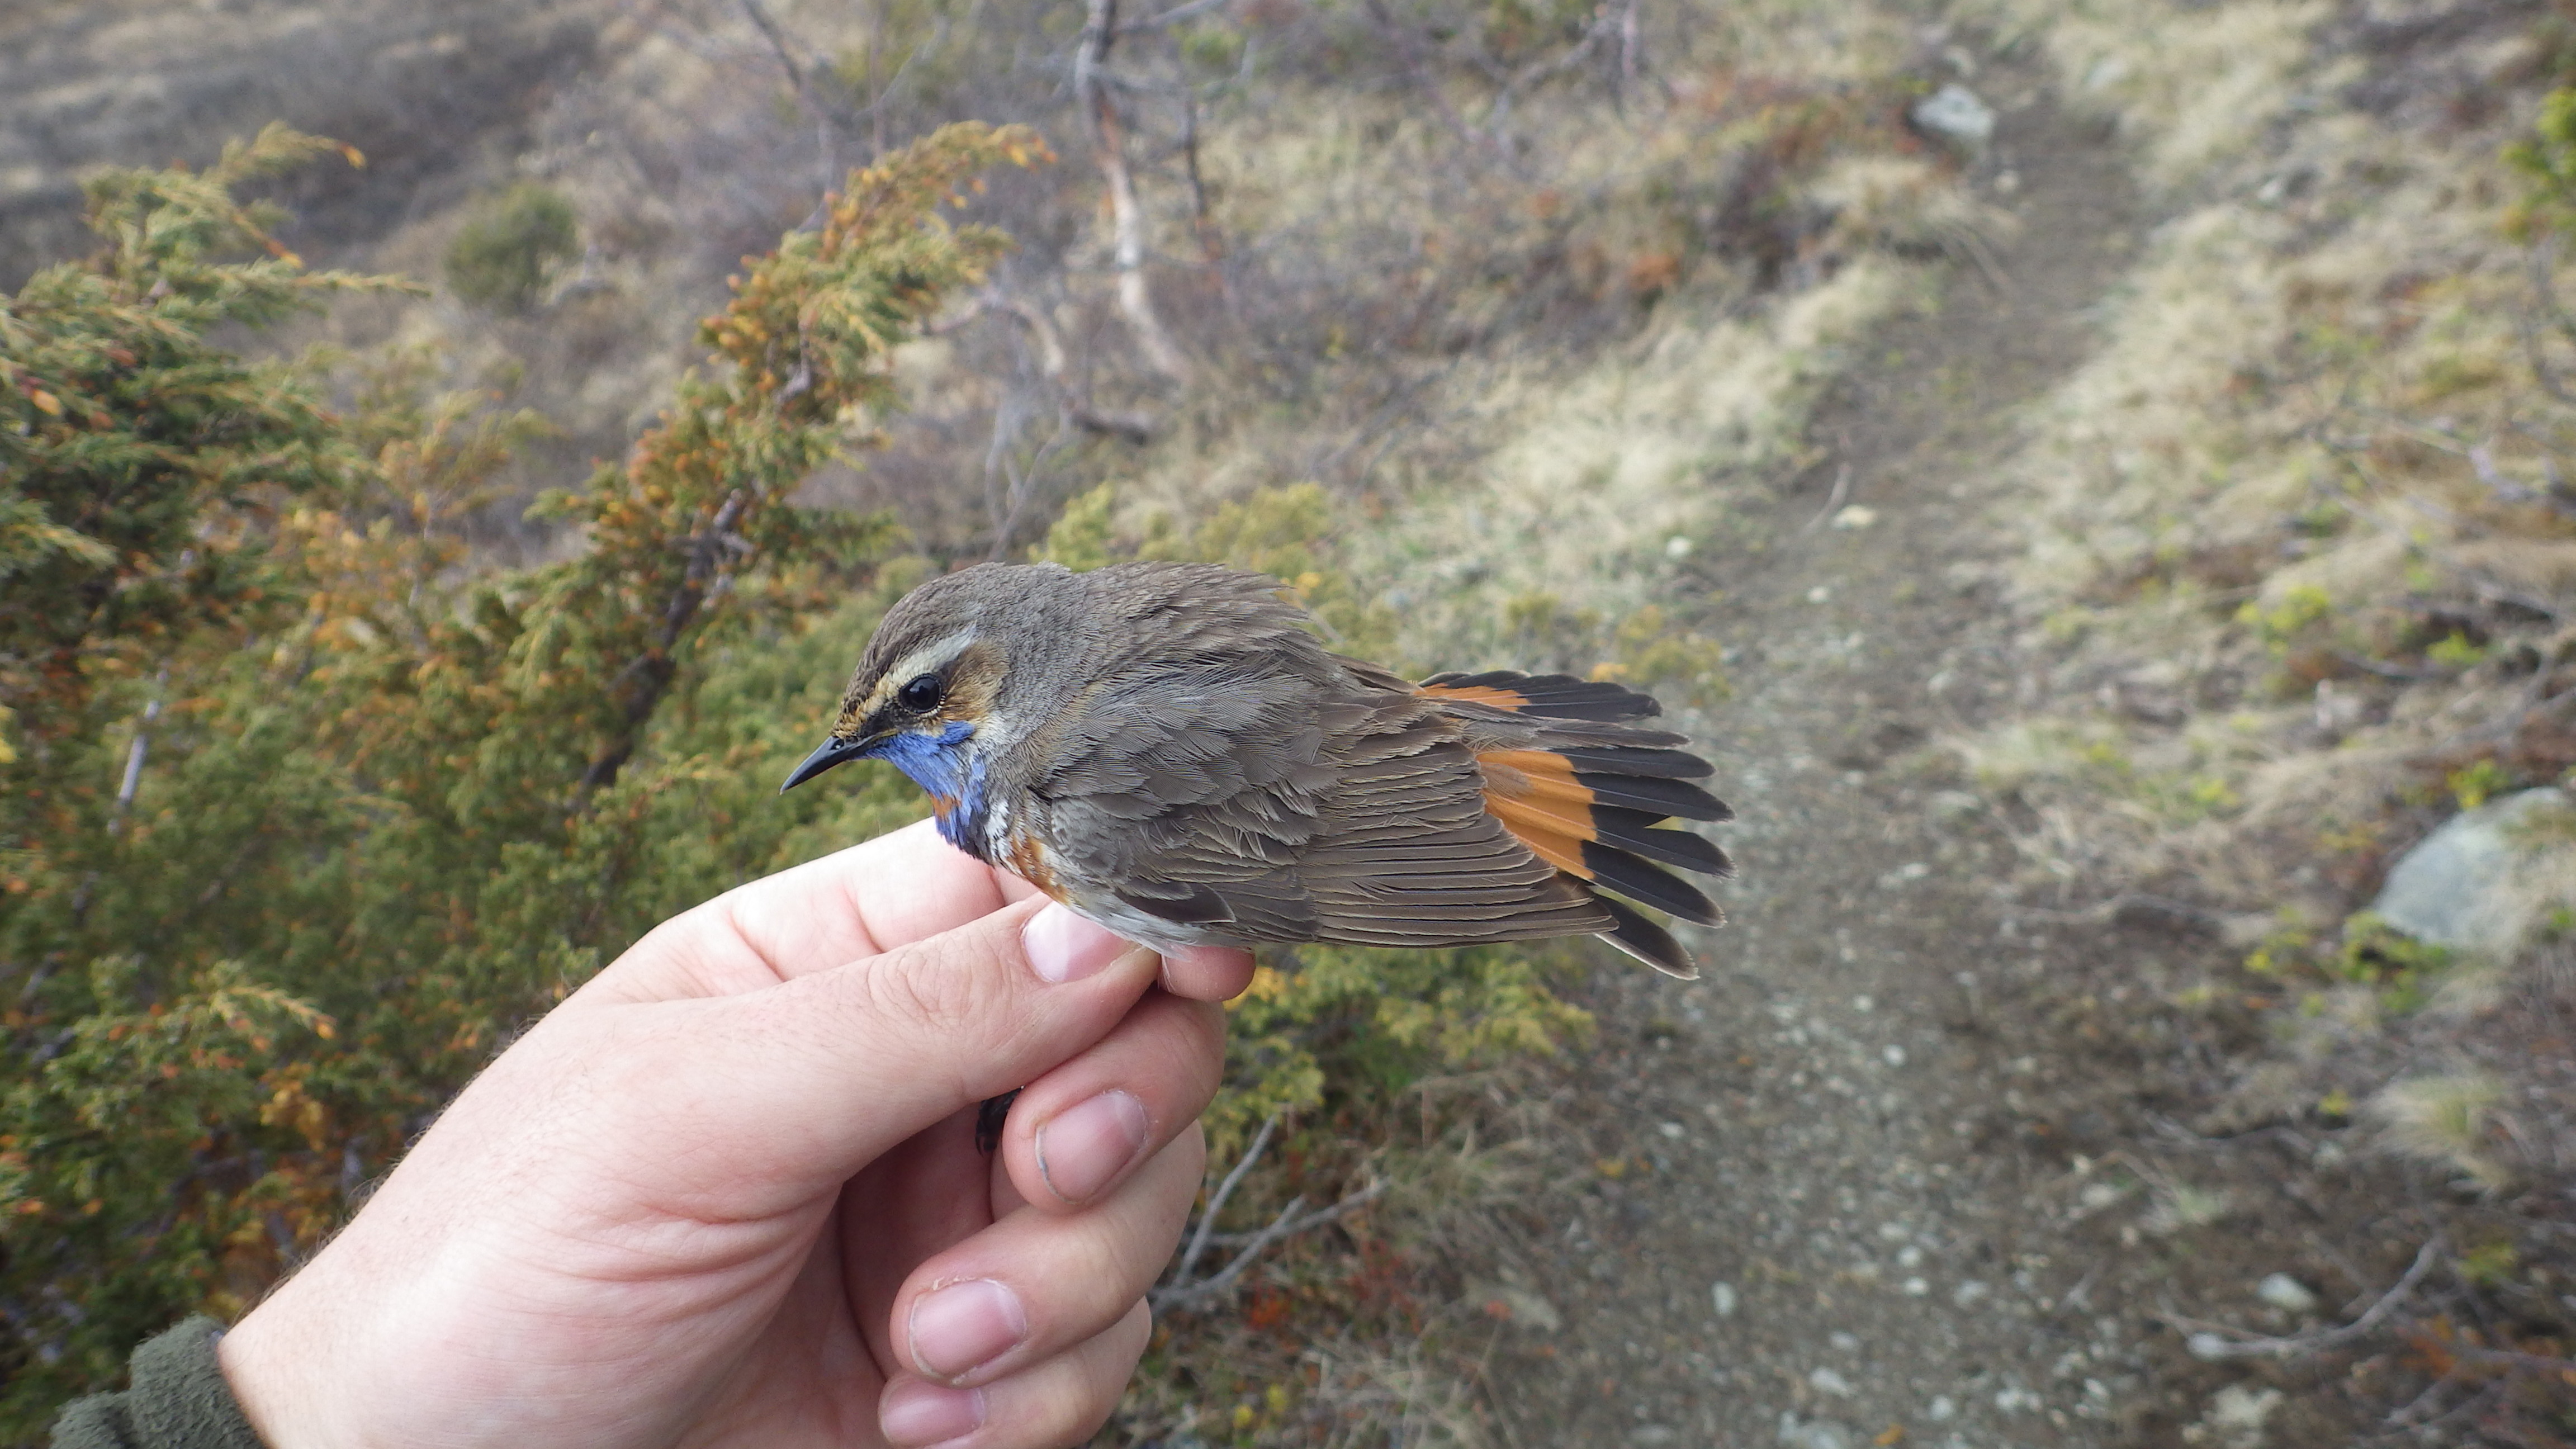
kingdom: Animalia
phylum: Chordata
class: Aves
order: Passeriformes
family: Muscicapidae
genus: Luscinia
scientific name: Luscinia svecica
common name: Bluethroat
